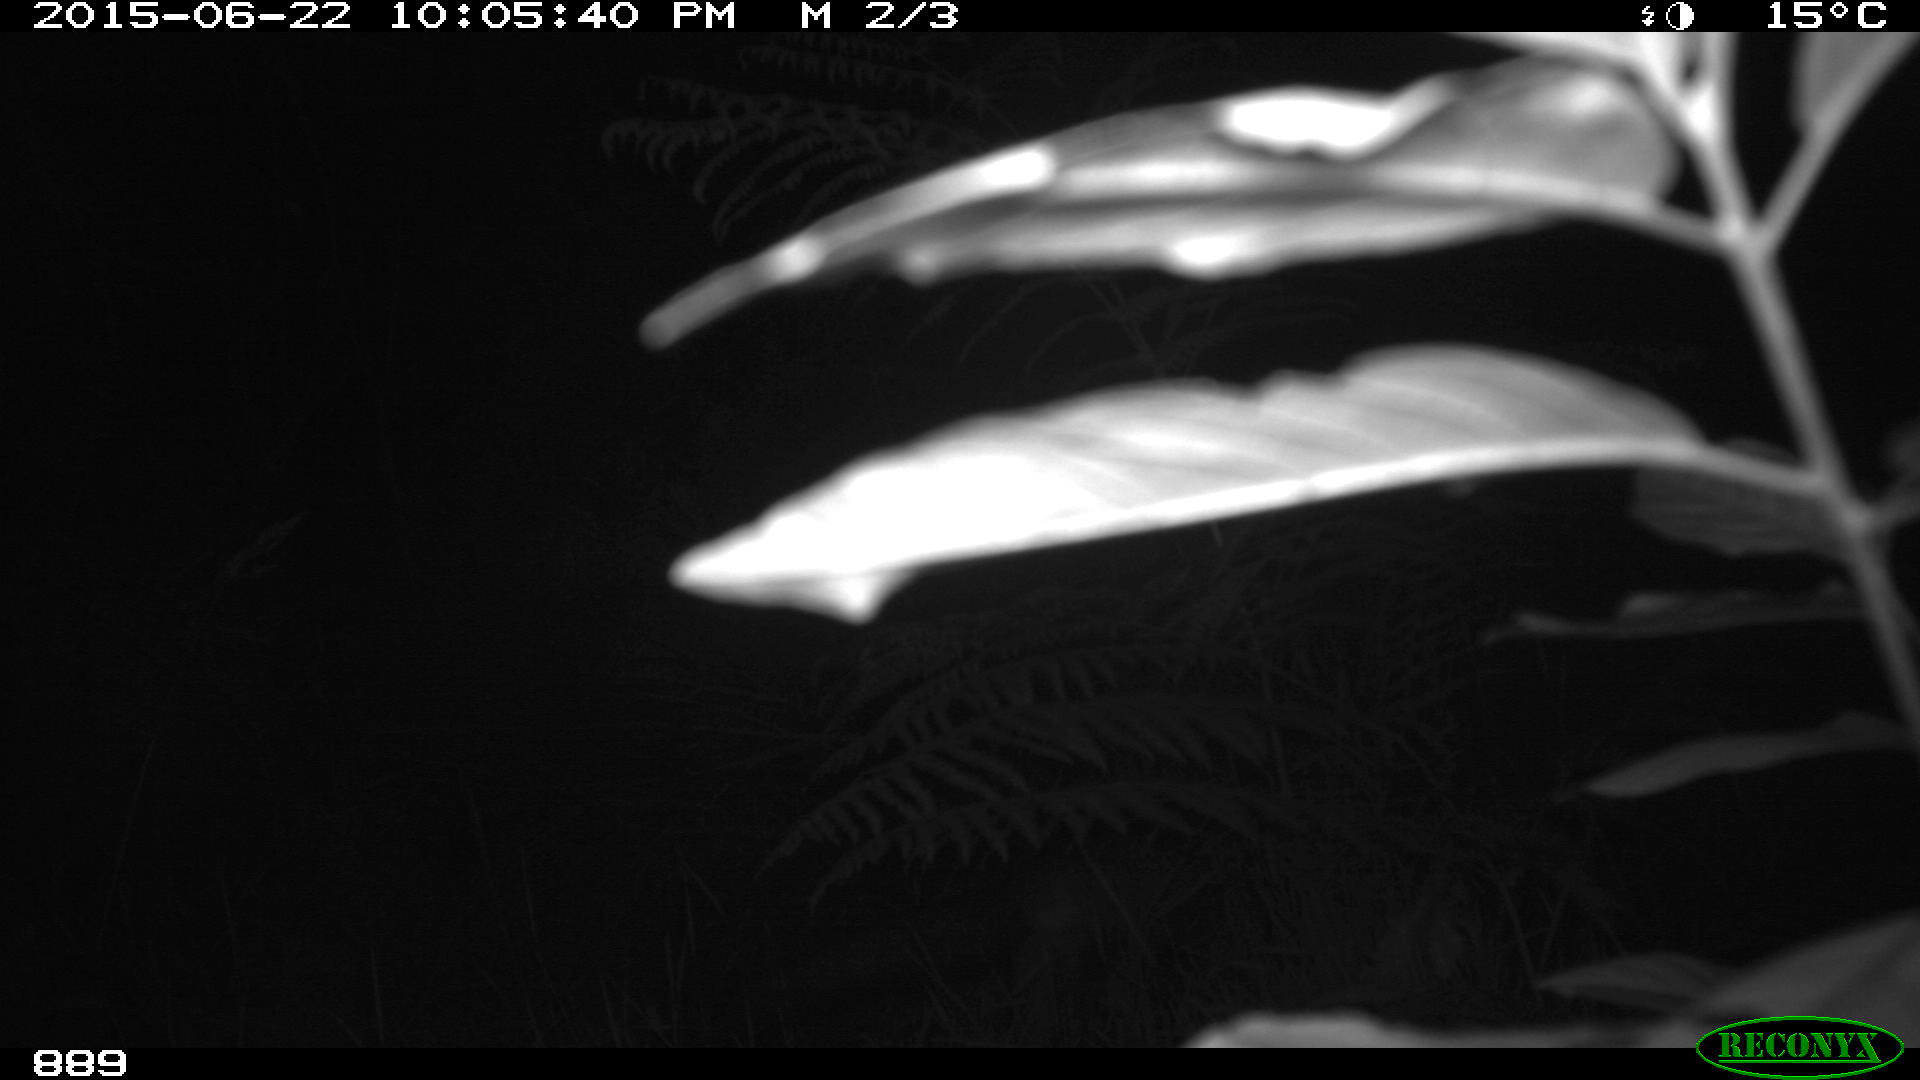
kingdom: Animalia
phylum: Chordata
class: Mammalia
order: Carnivora
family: Canidae
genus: Vulpes
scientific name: Vulpes vulpes
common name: Red fox
